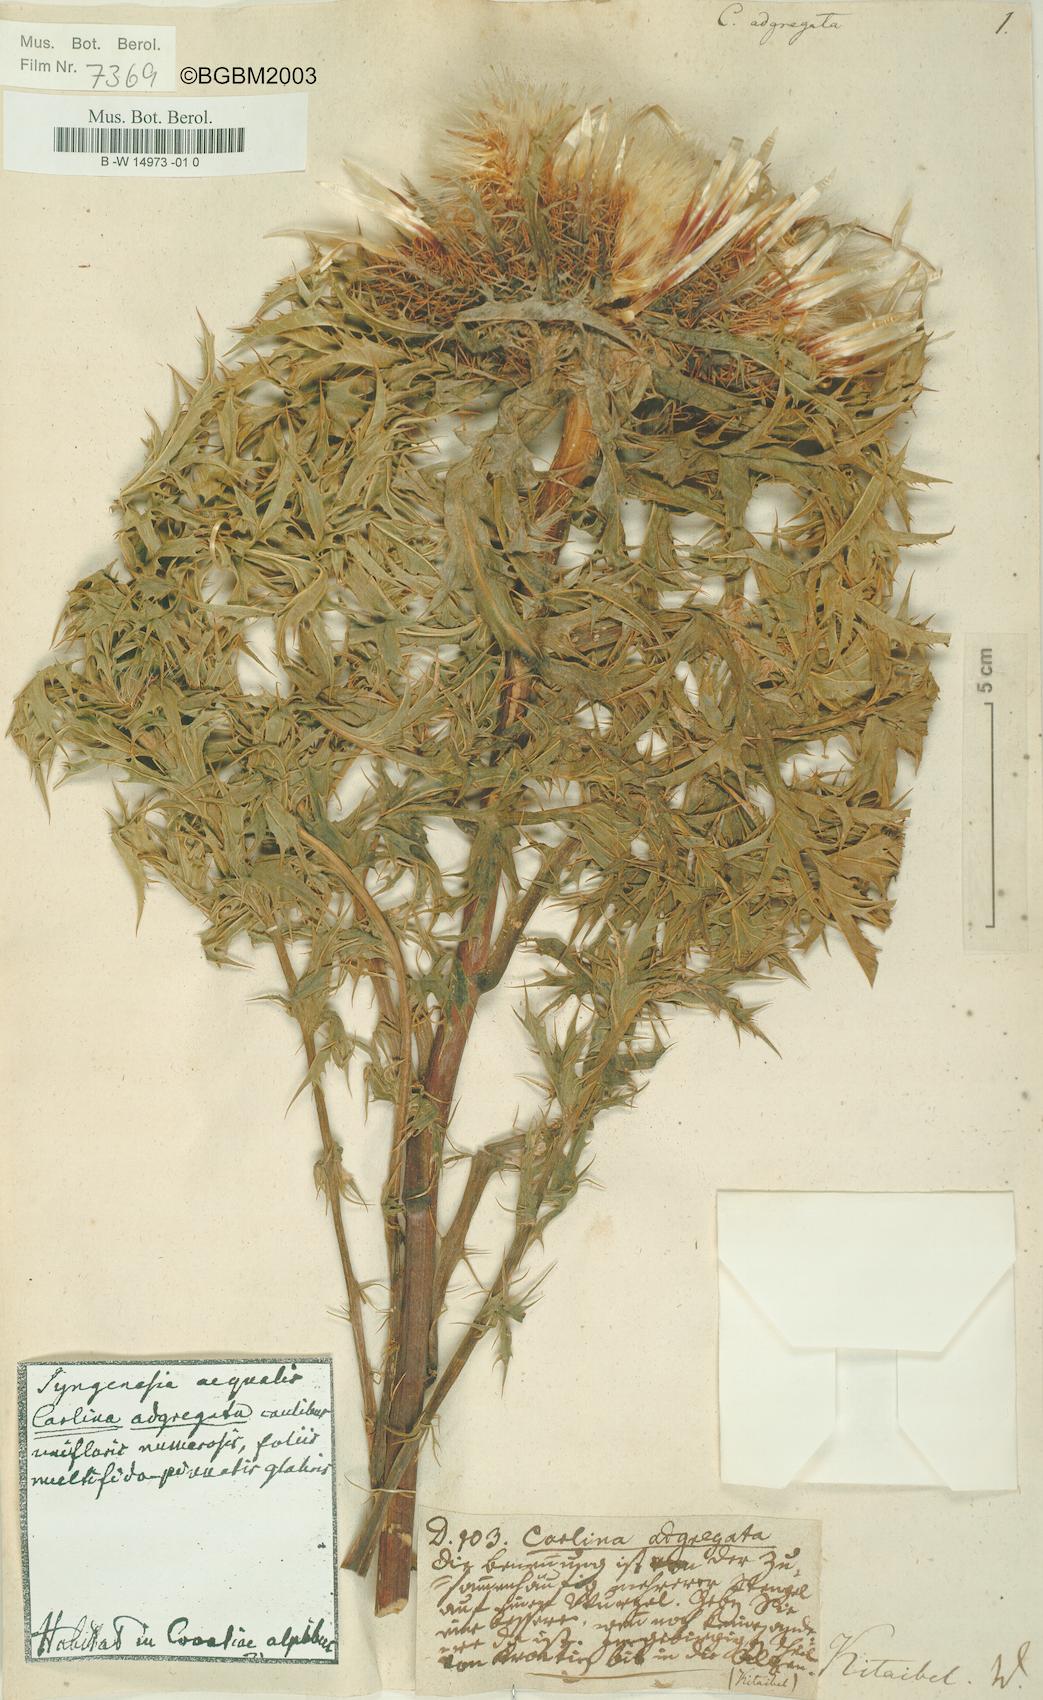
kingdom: Plantae
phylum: Tracheophyta
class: Magnoliopsida
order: Asterales
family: Asteraceae
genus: Carlina
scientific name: Carlina acaulis
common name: Stemless carline thistle
